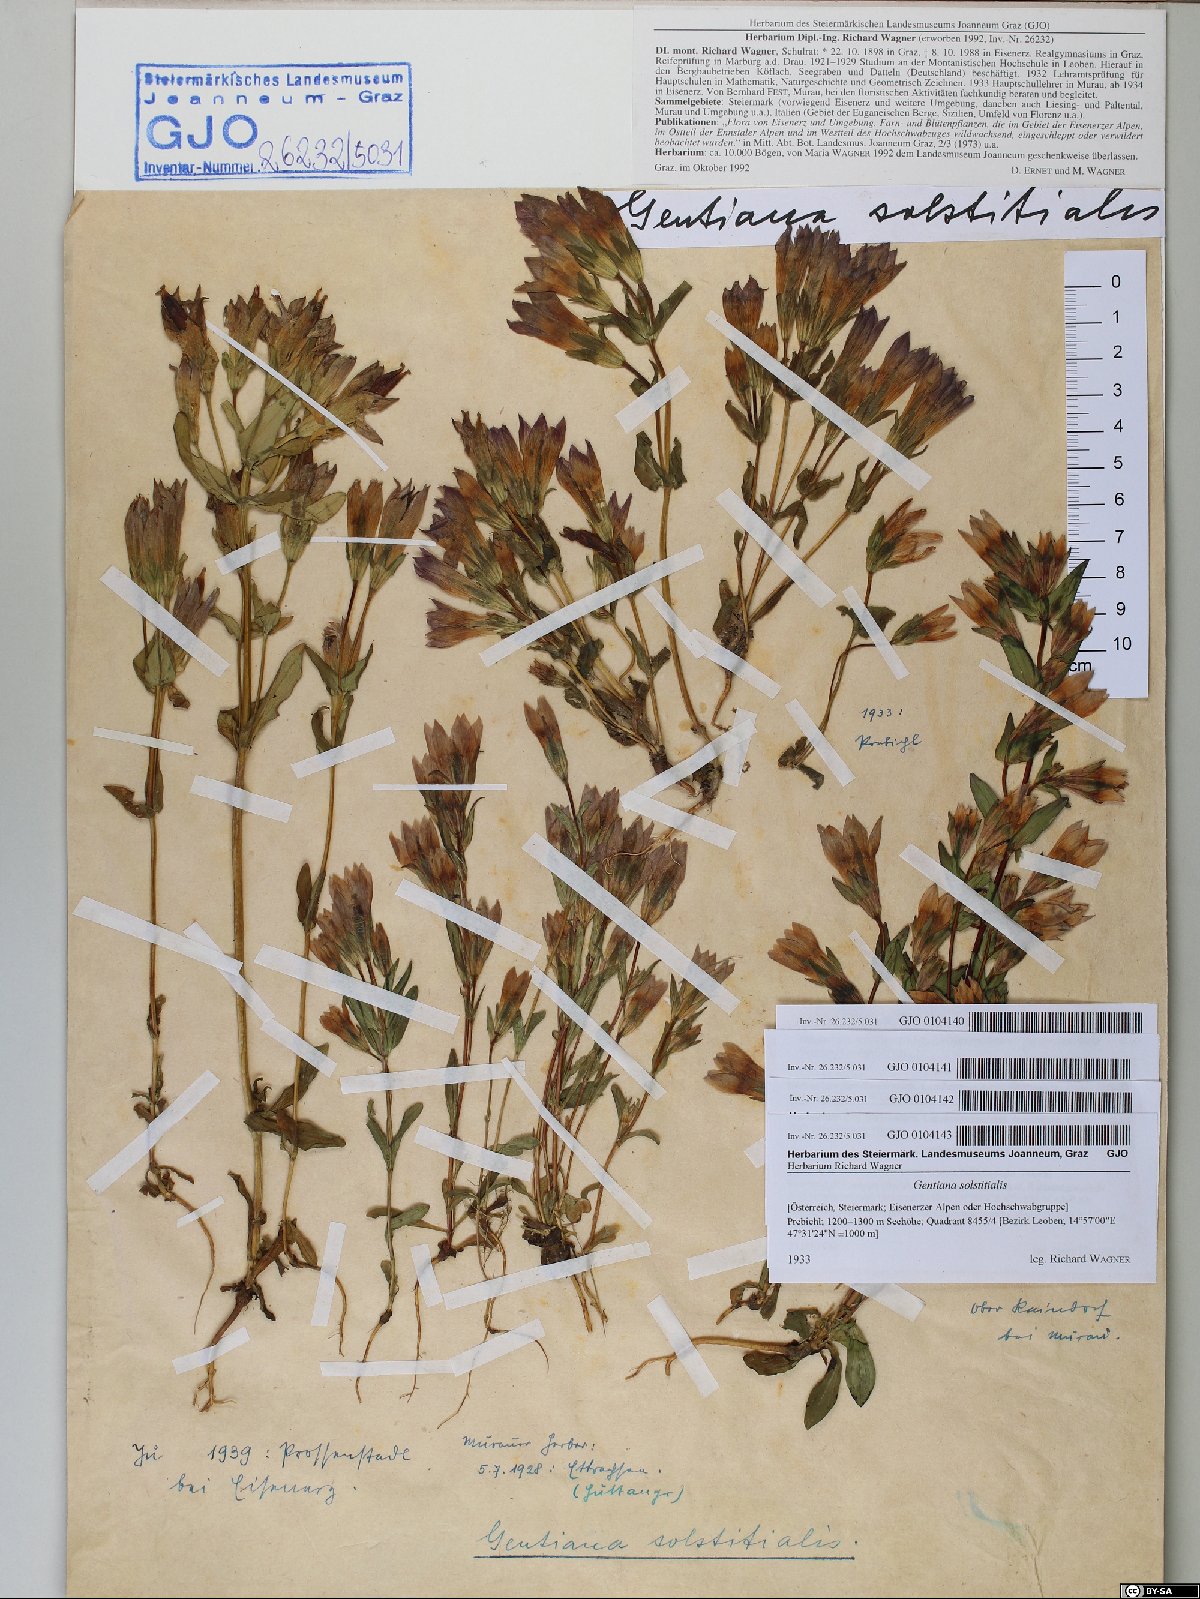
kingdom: Plantae
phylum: Tracheophyta
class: Magnoliopsida
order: Gentianales
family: Gentianaceae
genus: Gentianella
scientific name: Gentianella germanica
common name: Chiltern-gentian
